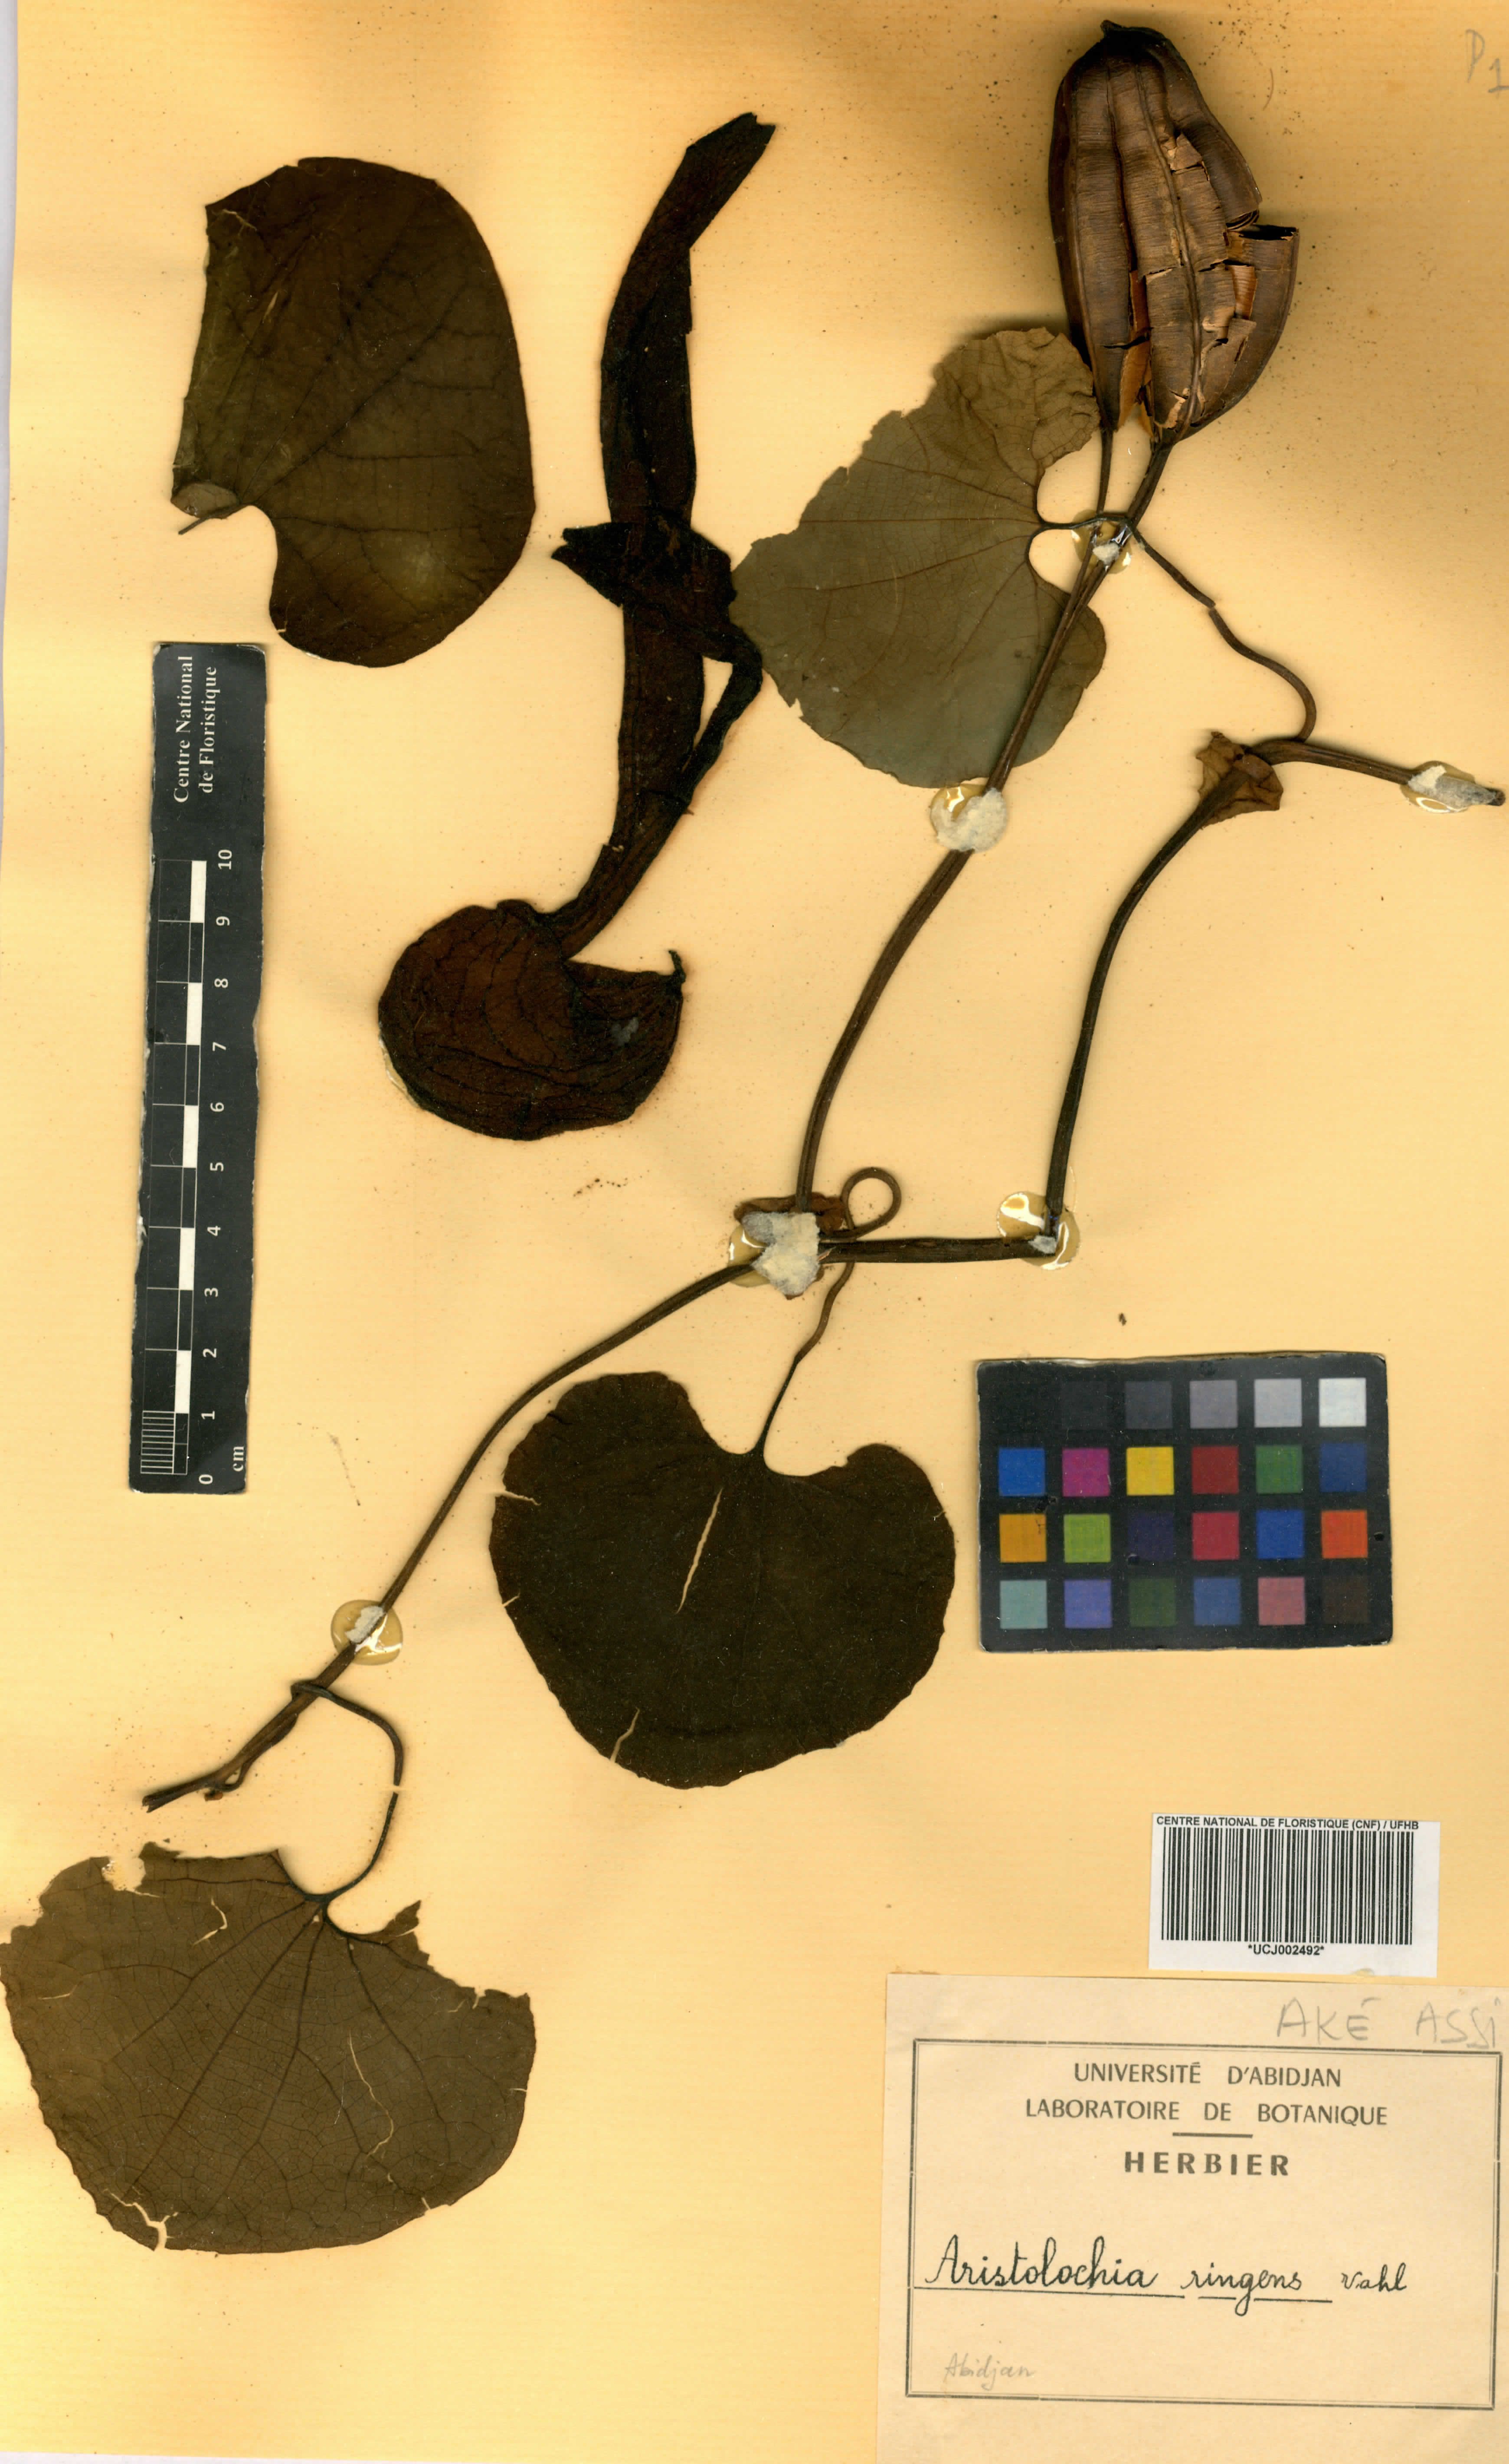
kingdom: Plantae
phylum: Tracheophyta
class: Magnoliopsida
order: Piperales
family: Aristolochiaceae
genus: Aristolochia
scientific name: Aristolochia ringens
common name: Gaping dutchman's pipe
